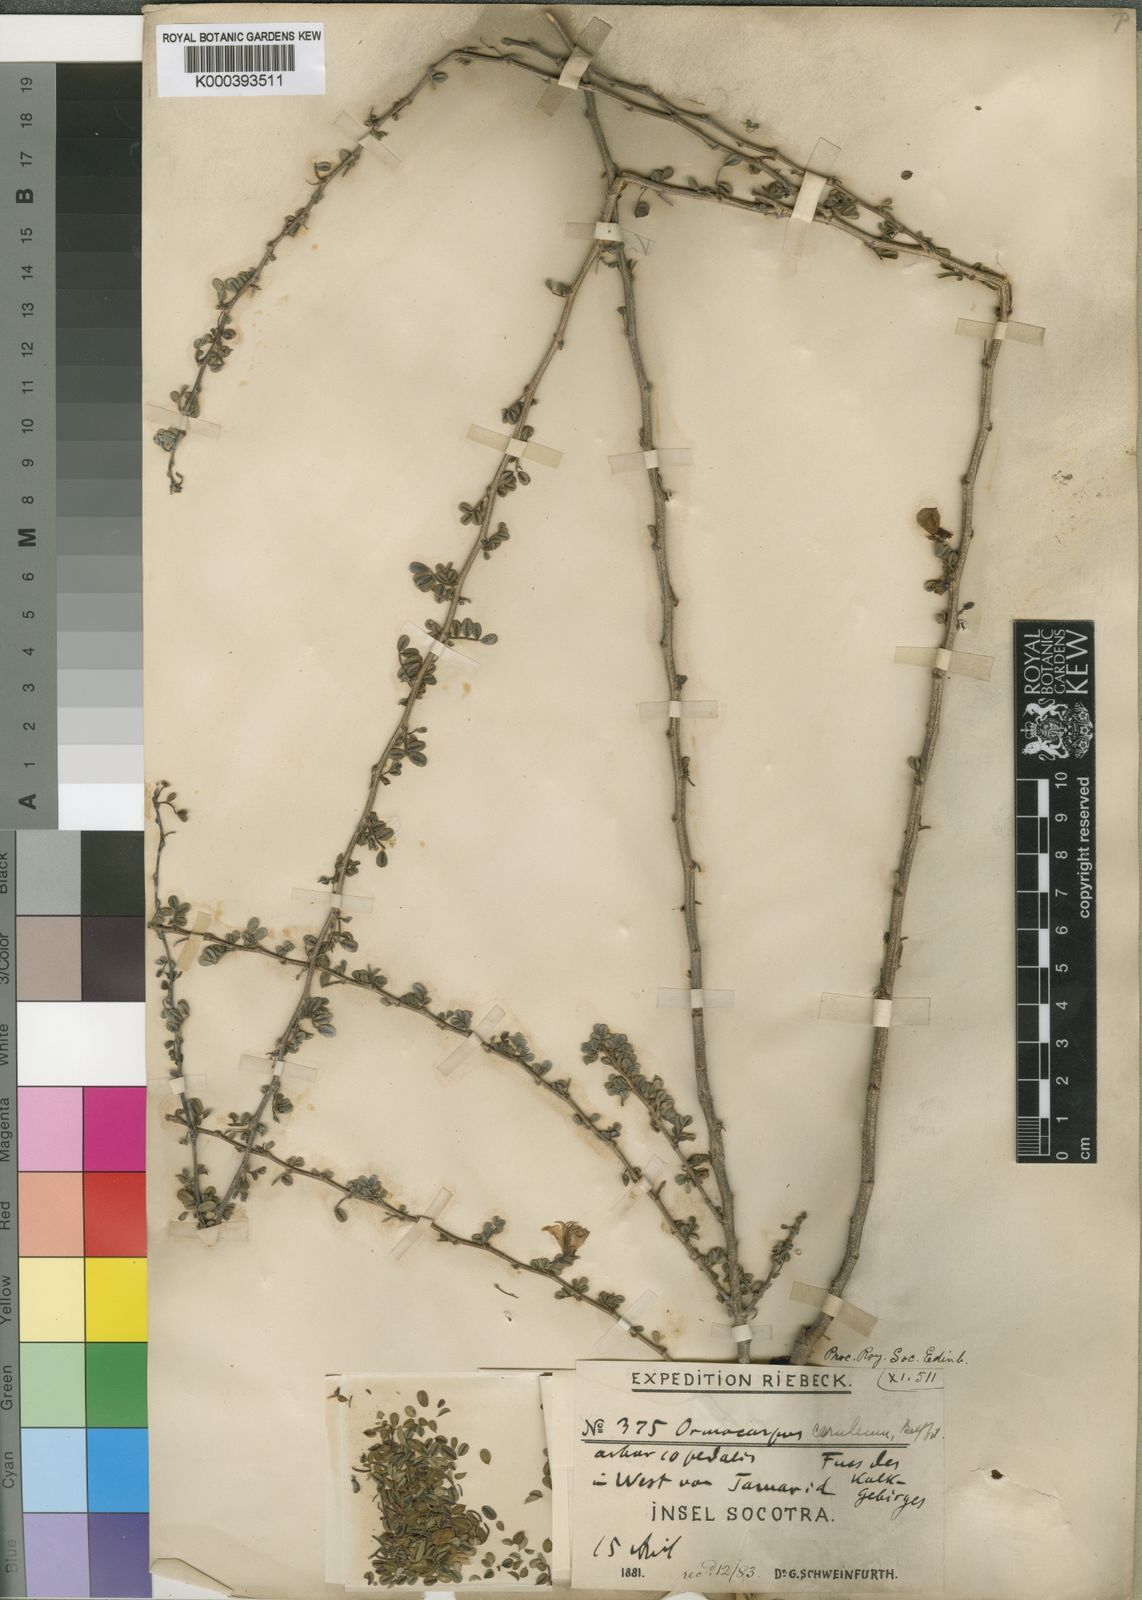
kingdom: Plantae
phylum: Tracheophyta
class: Magnoliopsida
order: Fabales
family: Fabaceae
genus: Zygocarpum
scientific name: Zygocarpum caeruleum
